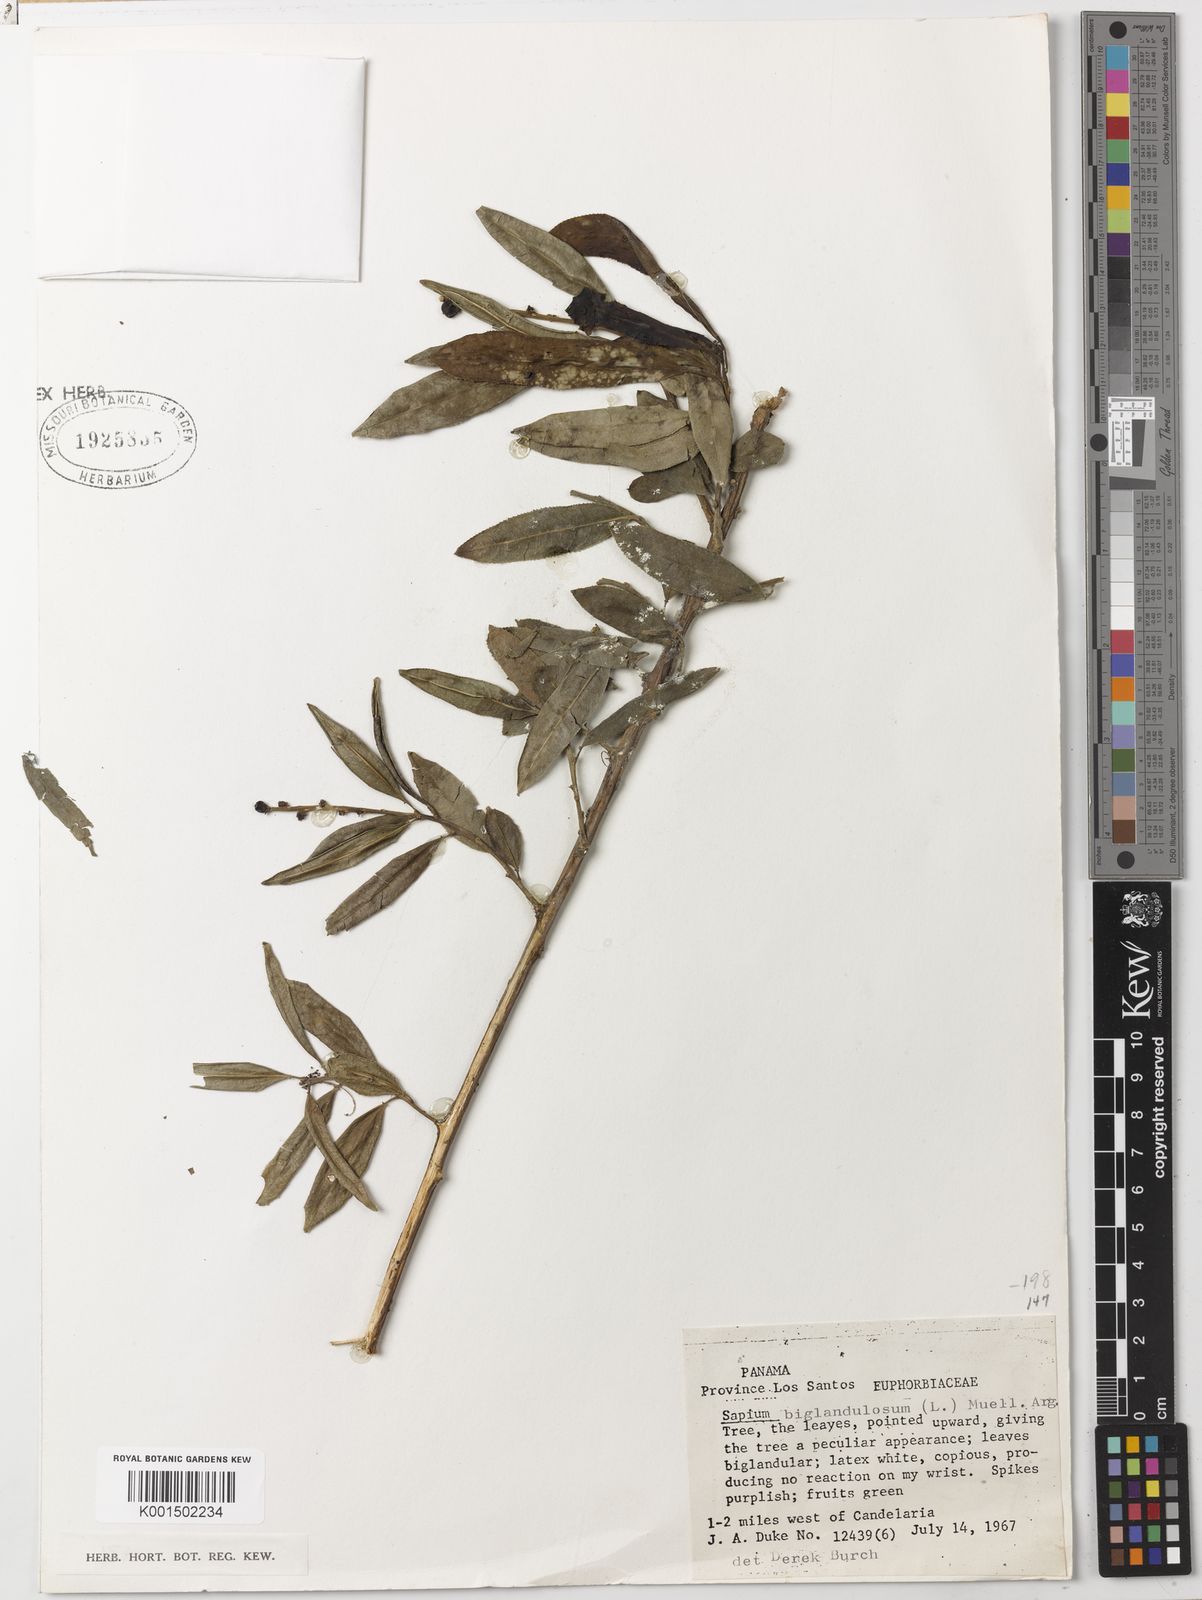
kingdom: Plantae
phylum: Tracheophyta
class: Magnoliopsida
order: Malpighiales
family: Euphorbiaceae
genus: Sapium
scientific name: Sapium glandulosum
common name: Milktree
